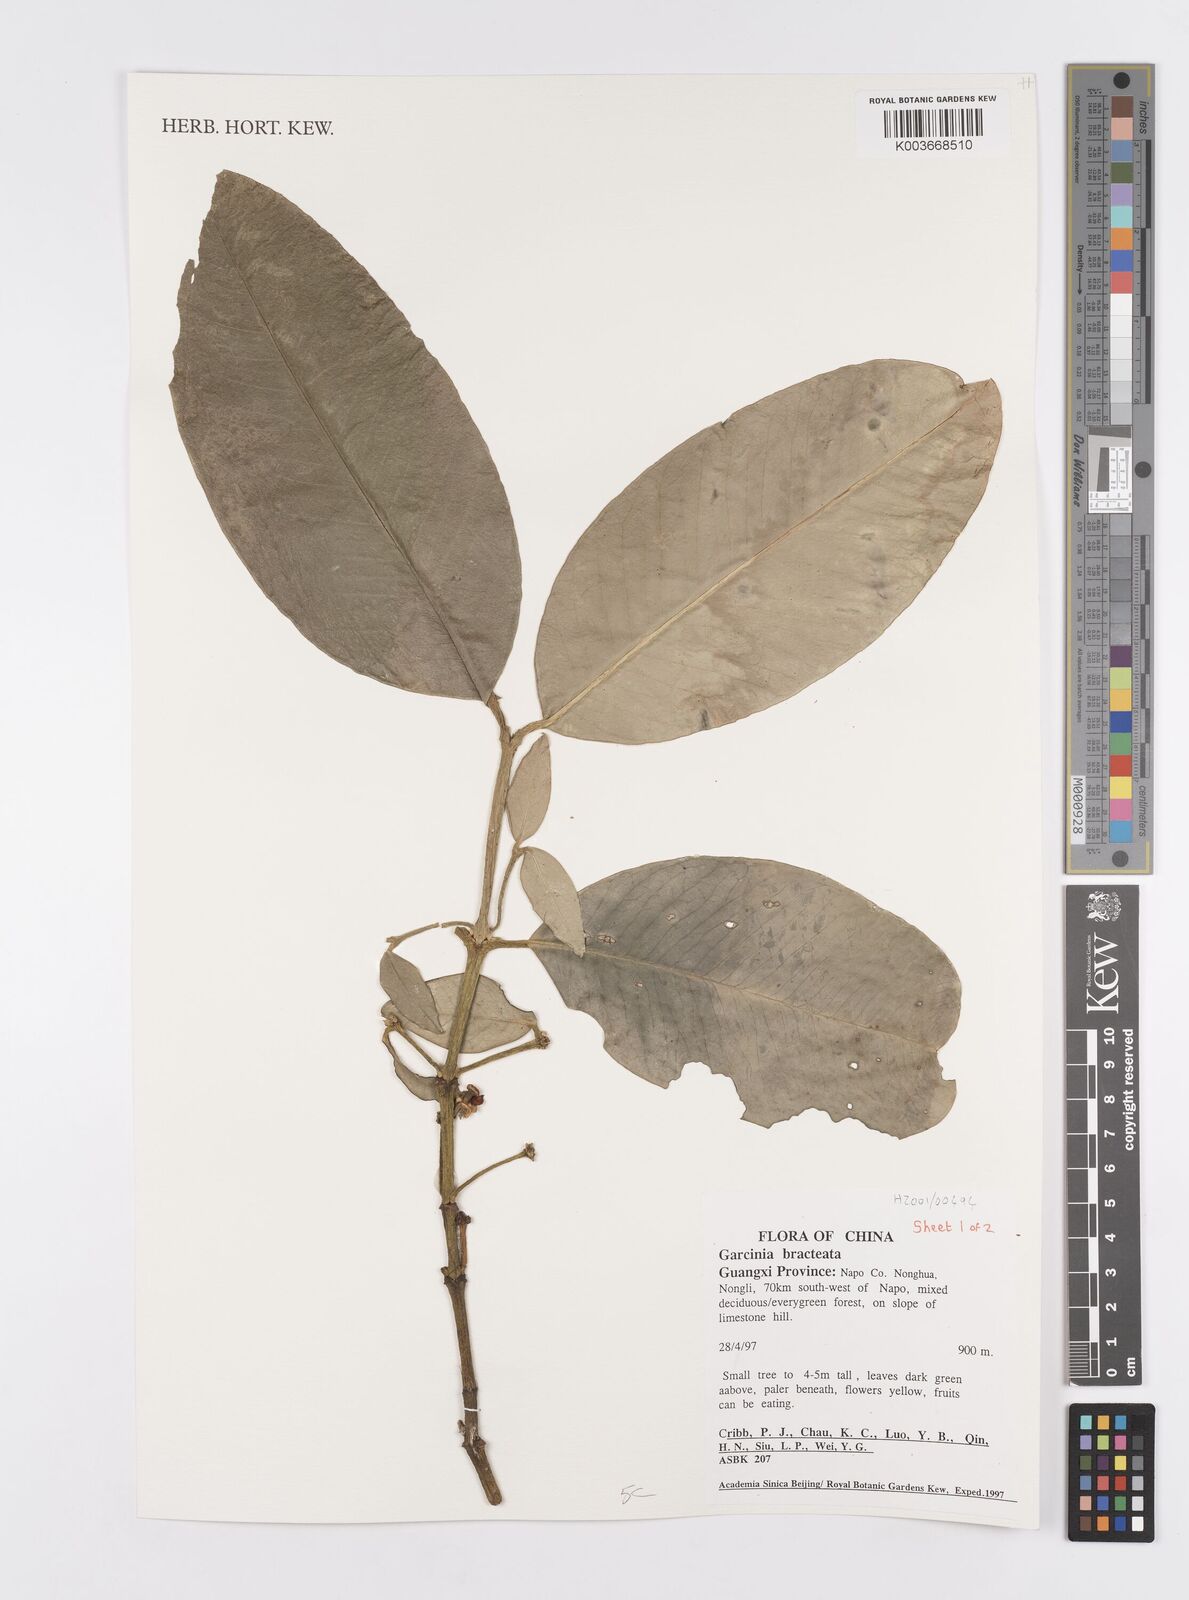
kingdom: Plantae
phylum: Tracheophyta
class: Magnoliopsida
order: Malpighiales
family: Clusiaceae
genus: Garcinia
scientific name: Garcinia anomala
